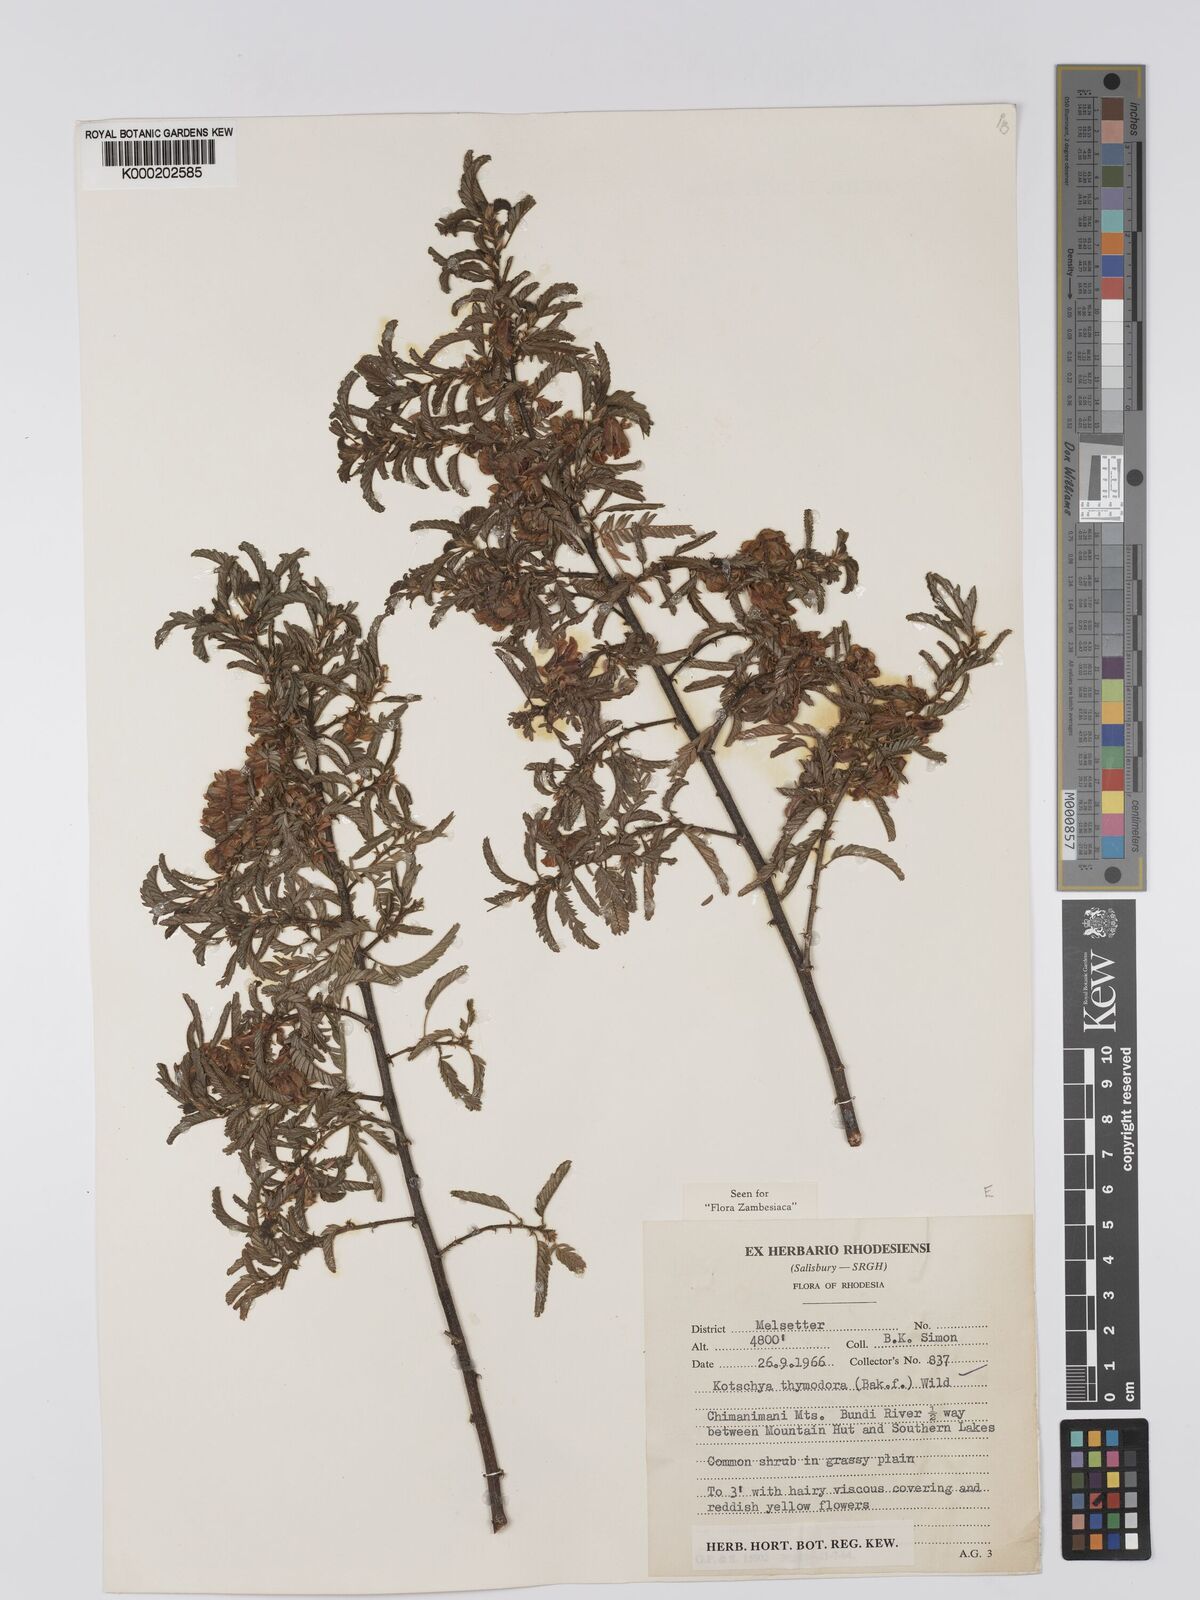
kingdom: Plantae
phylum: Tracheophyta
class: Magnoliopsida
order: Fabales
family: Fabaceae
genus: Kotschya
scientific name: Kotschya thymodora
